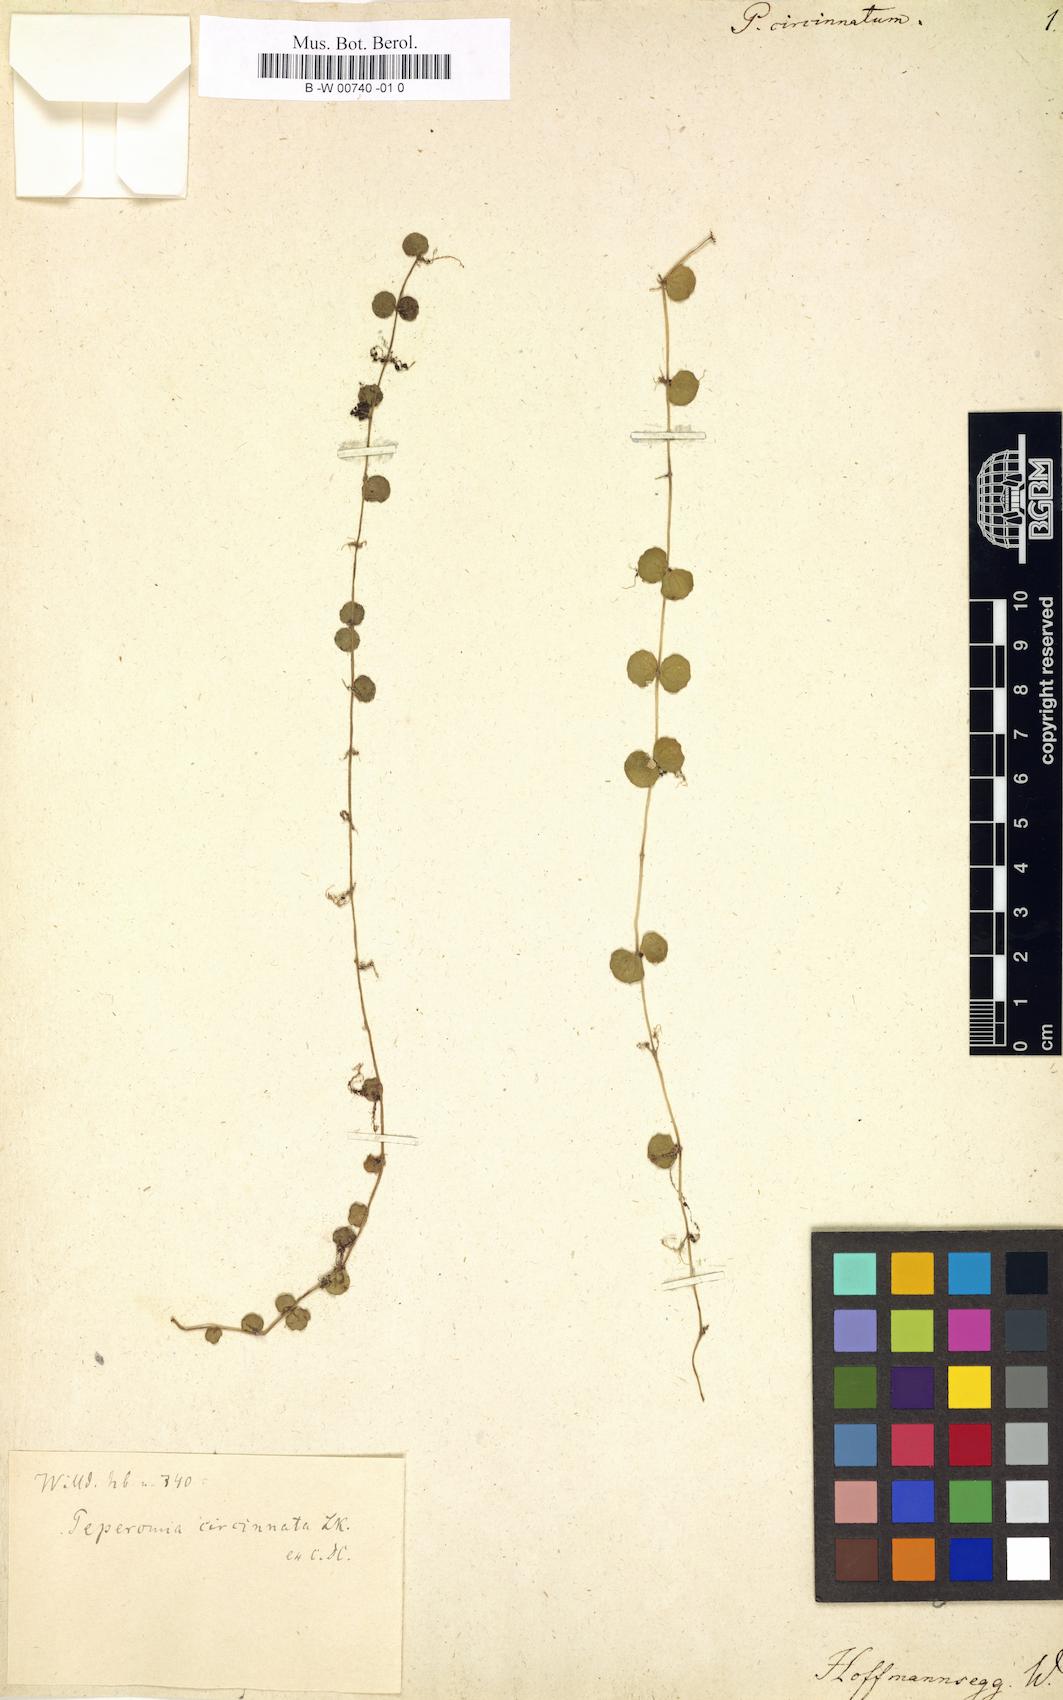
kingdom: Plantae
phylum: Tracheophyta
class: Magnoliopsida
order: Piperales
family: Piperaceae
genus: Peperomia
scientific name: Peperomia circinnata
